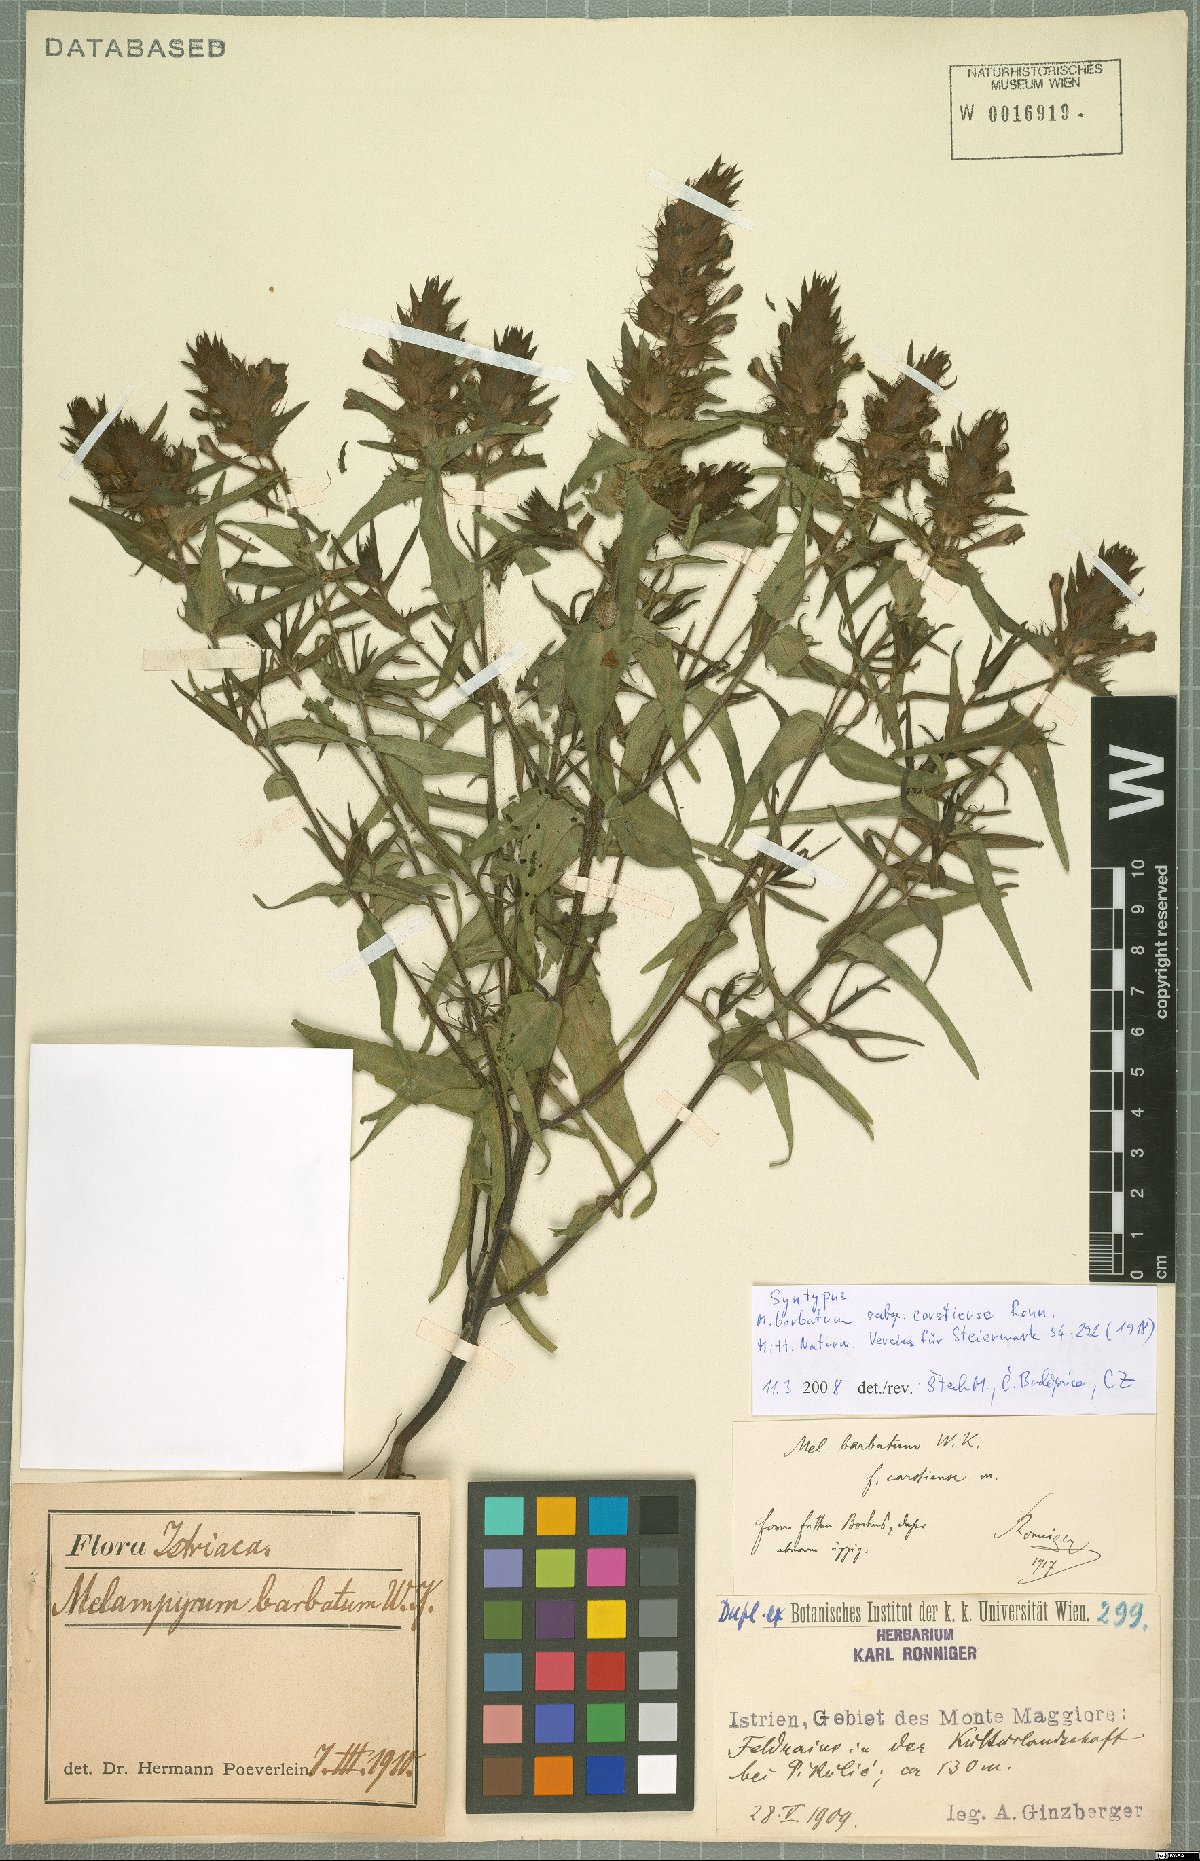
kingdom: Plantae
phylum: Tracheophyta
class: Magnoliopsida
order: Lamiales
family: Orobanchaceae
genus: Melampyrum
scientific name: Melampyrum barbatum
